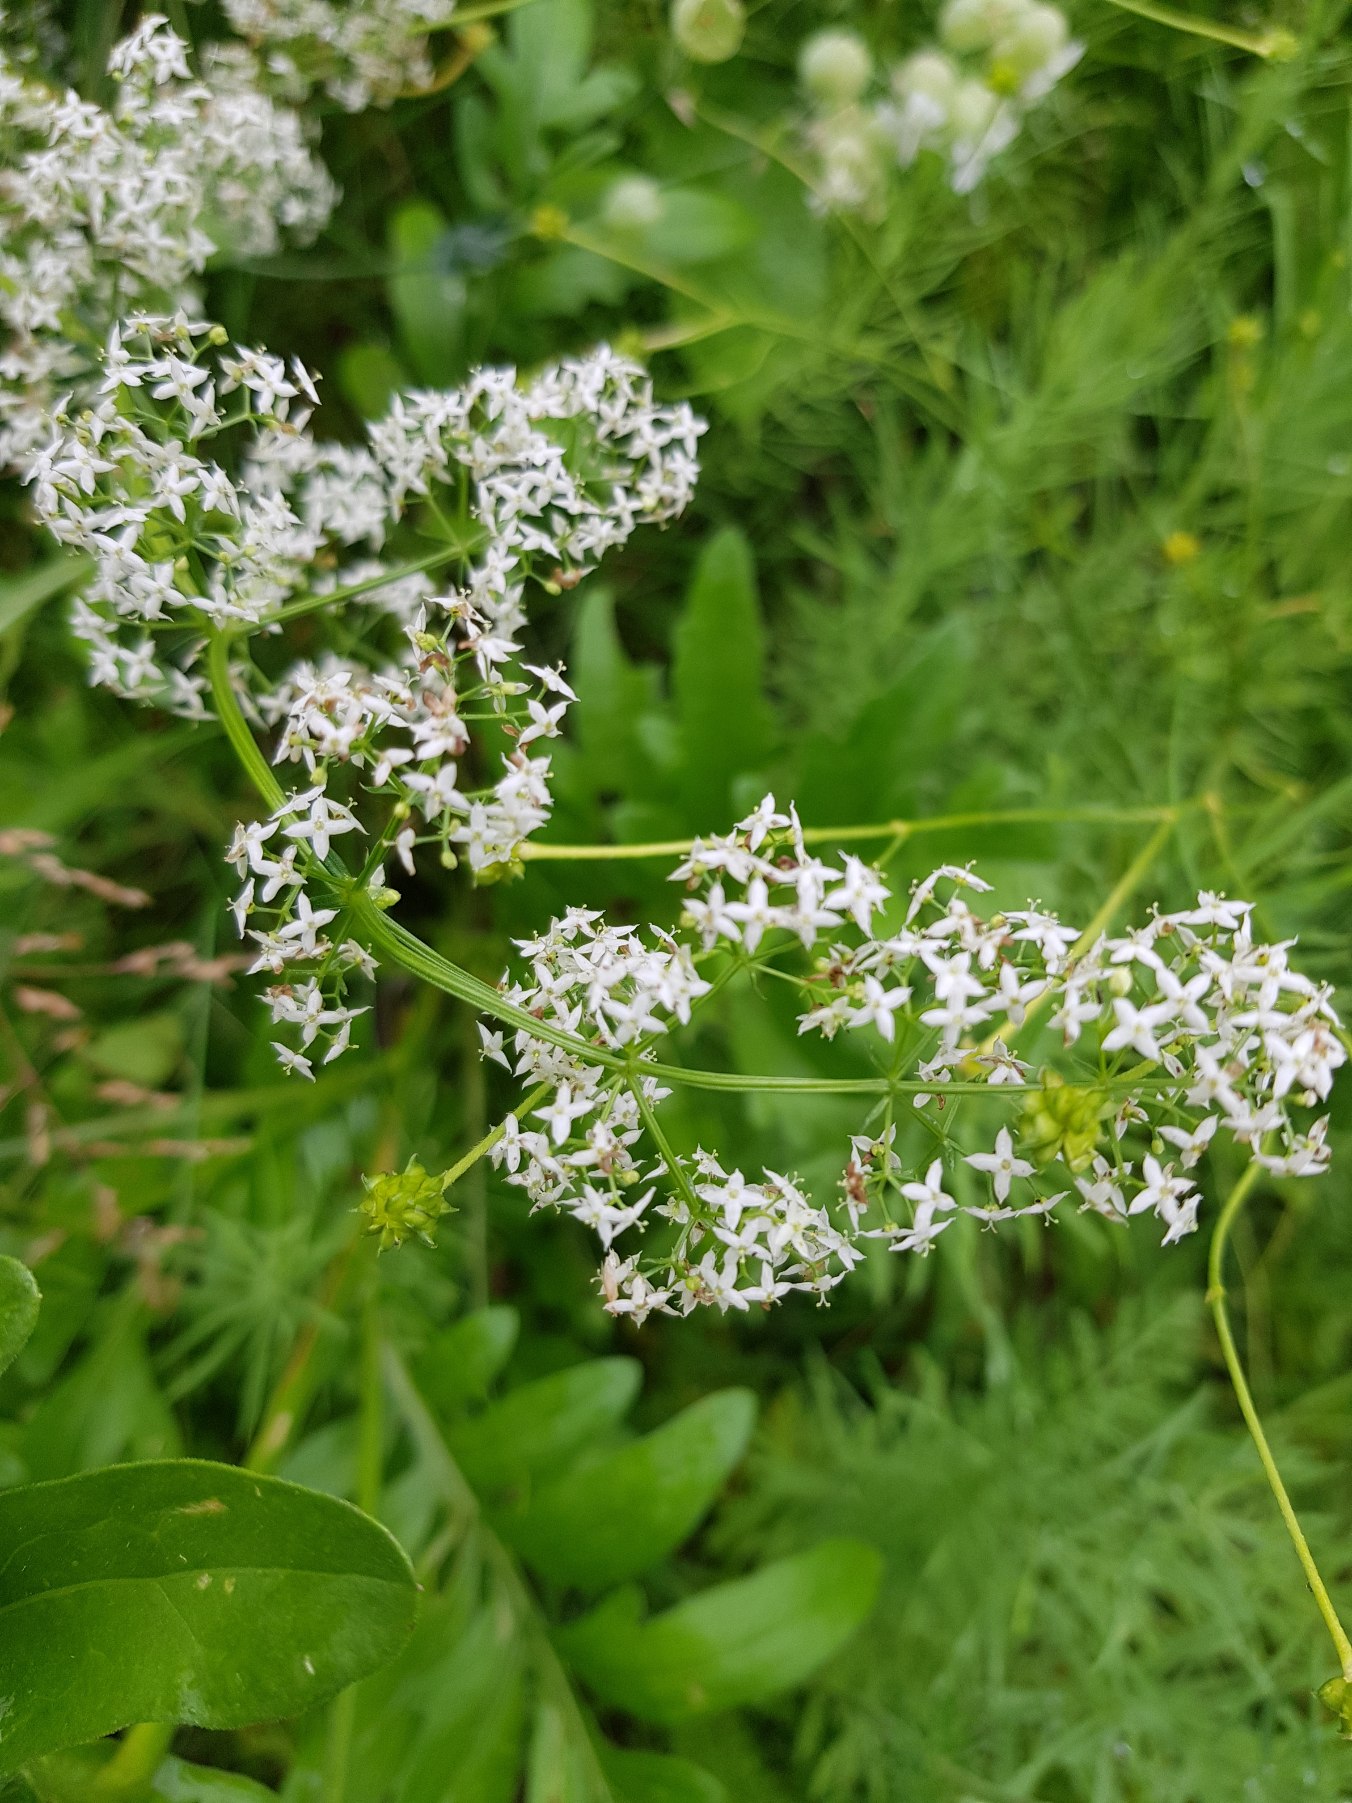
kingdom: Plantae
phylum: Tracheophyta
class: Magnoliopsida
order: Gentianales
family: Rubiaceae
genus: Galium
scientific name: Galium mollugo
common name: Hvid snerre
